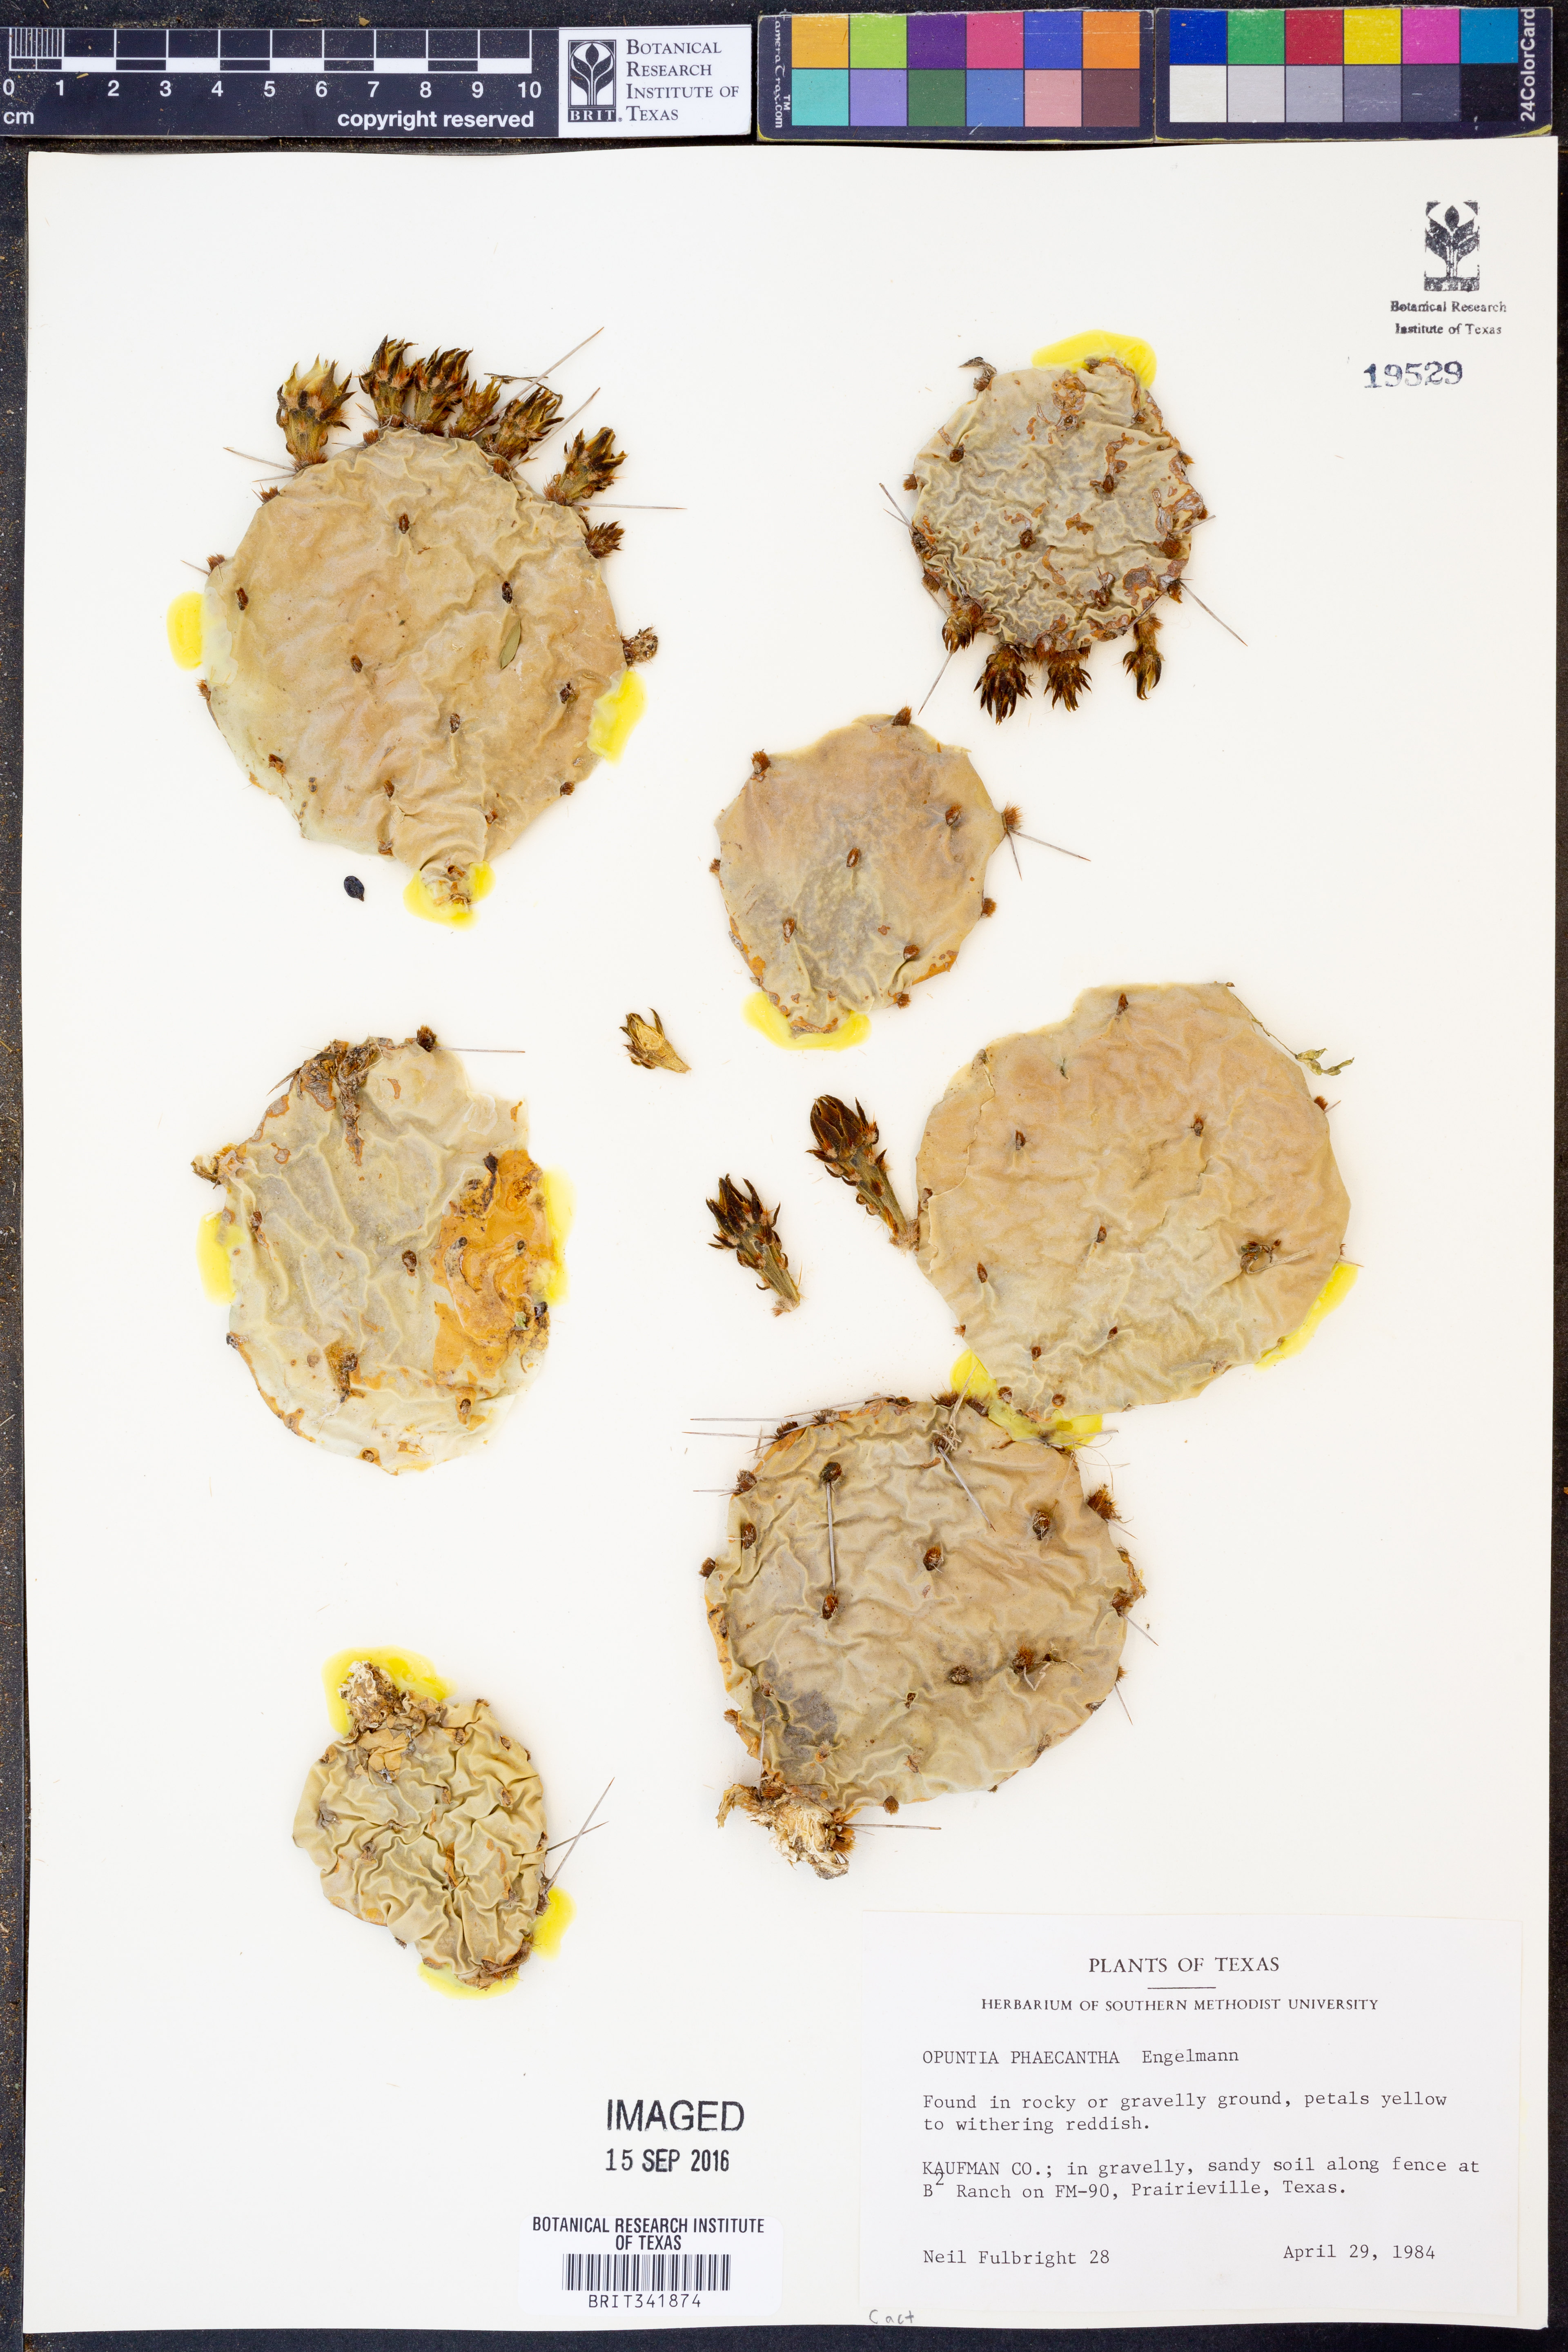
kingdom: Plantae
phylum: Tracheophyta
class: Magnoliopsida
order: Caryophyllales
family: Cactaceae
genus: Opuntia
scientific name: Opuntia phaeacantha
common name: New mexico prickly-pear
